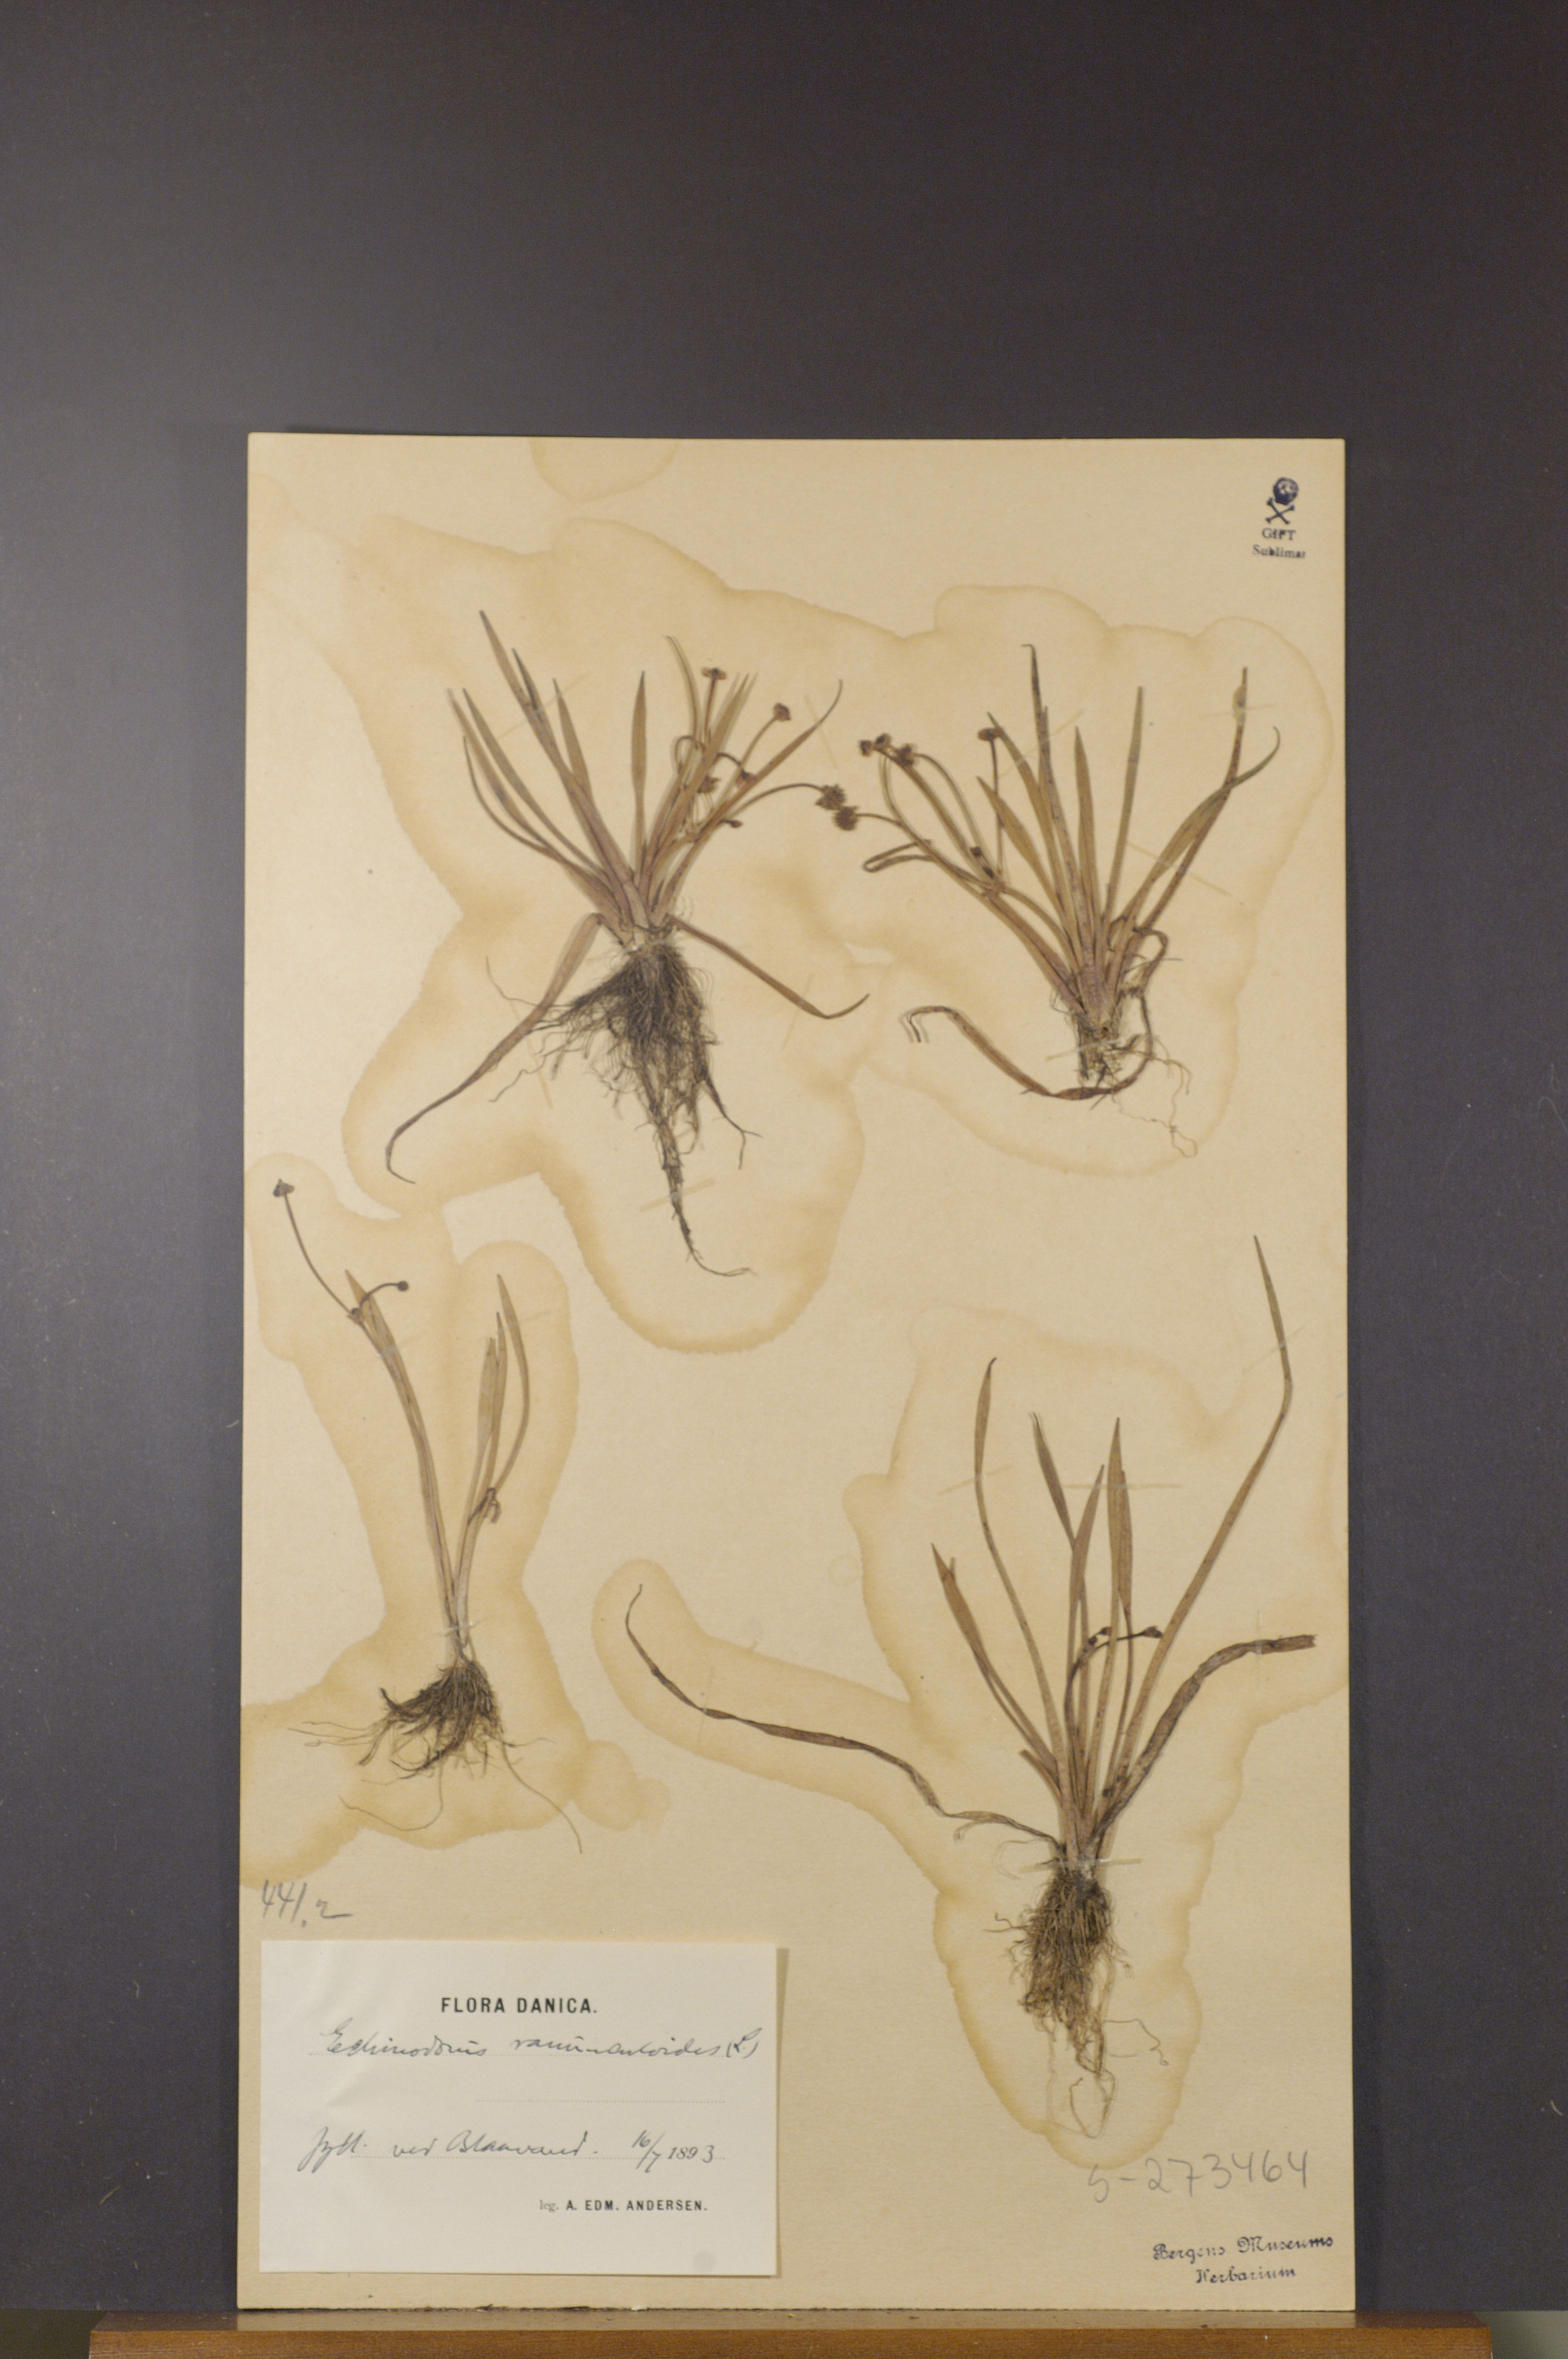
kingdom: Plantae
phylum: Tracheophyta
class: Liliopsida
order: Alismatales
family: Alismataceae
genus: Baldellia
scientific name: Baldellia ranunculoides
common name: Lesser water-plantain
